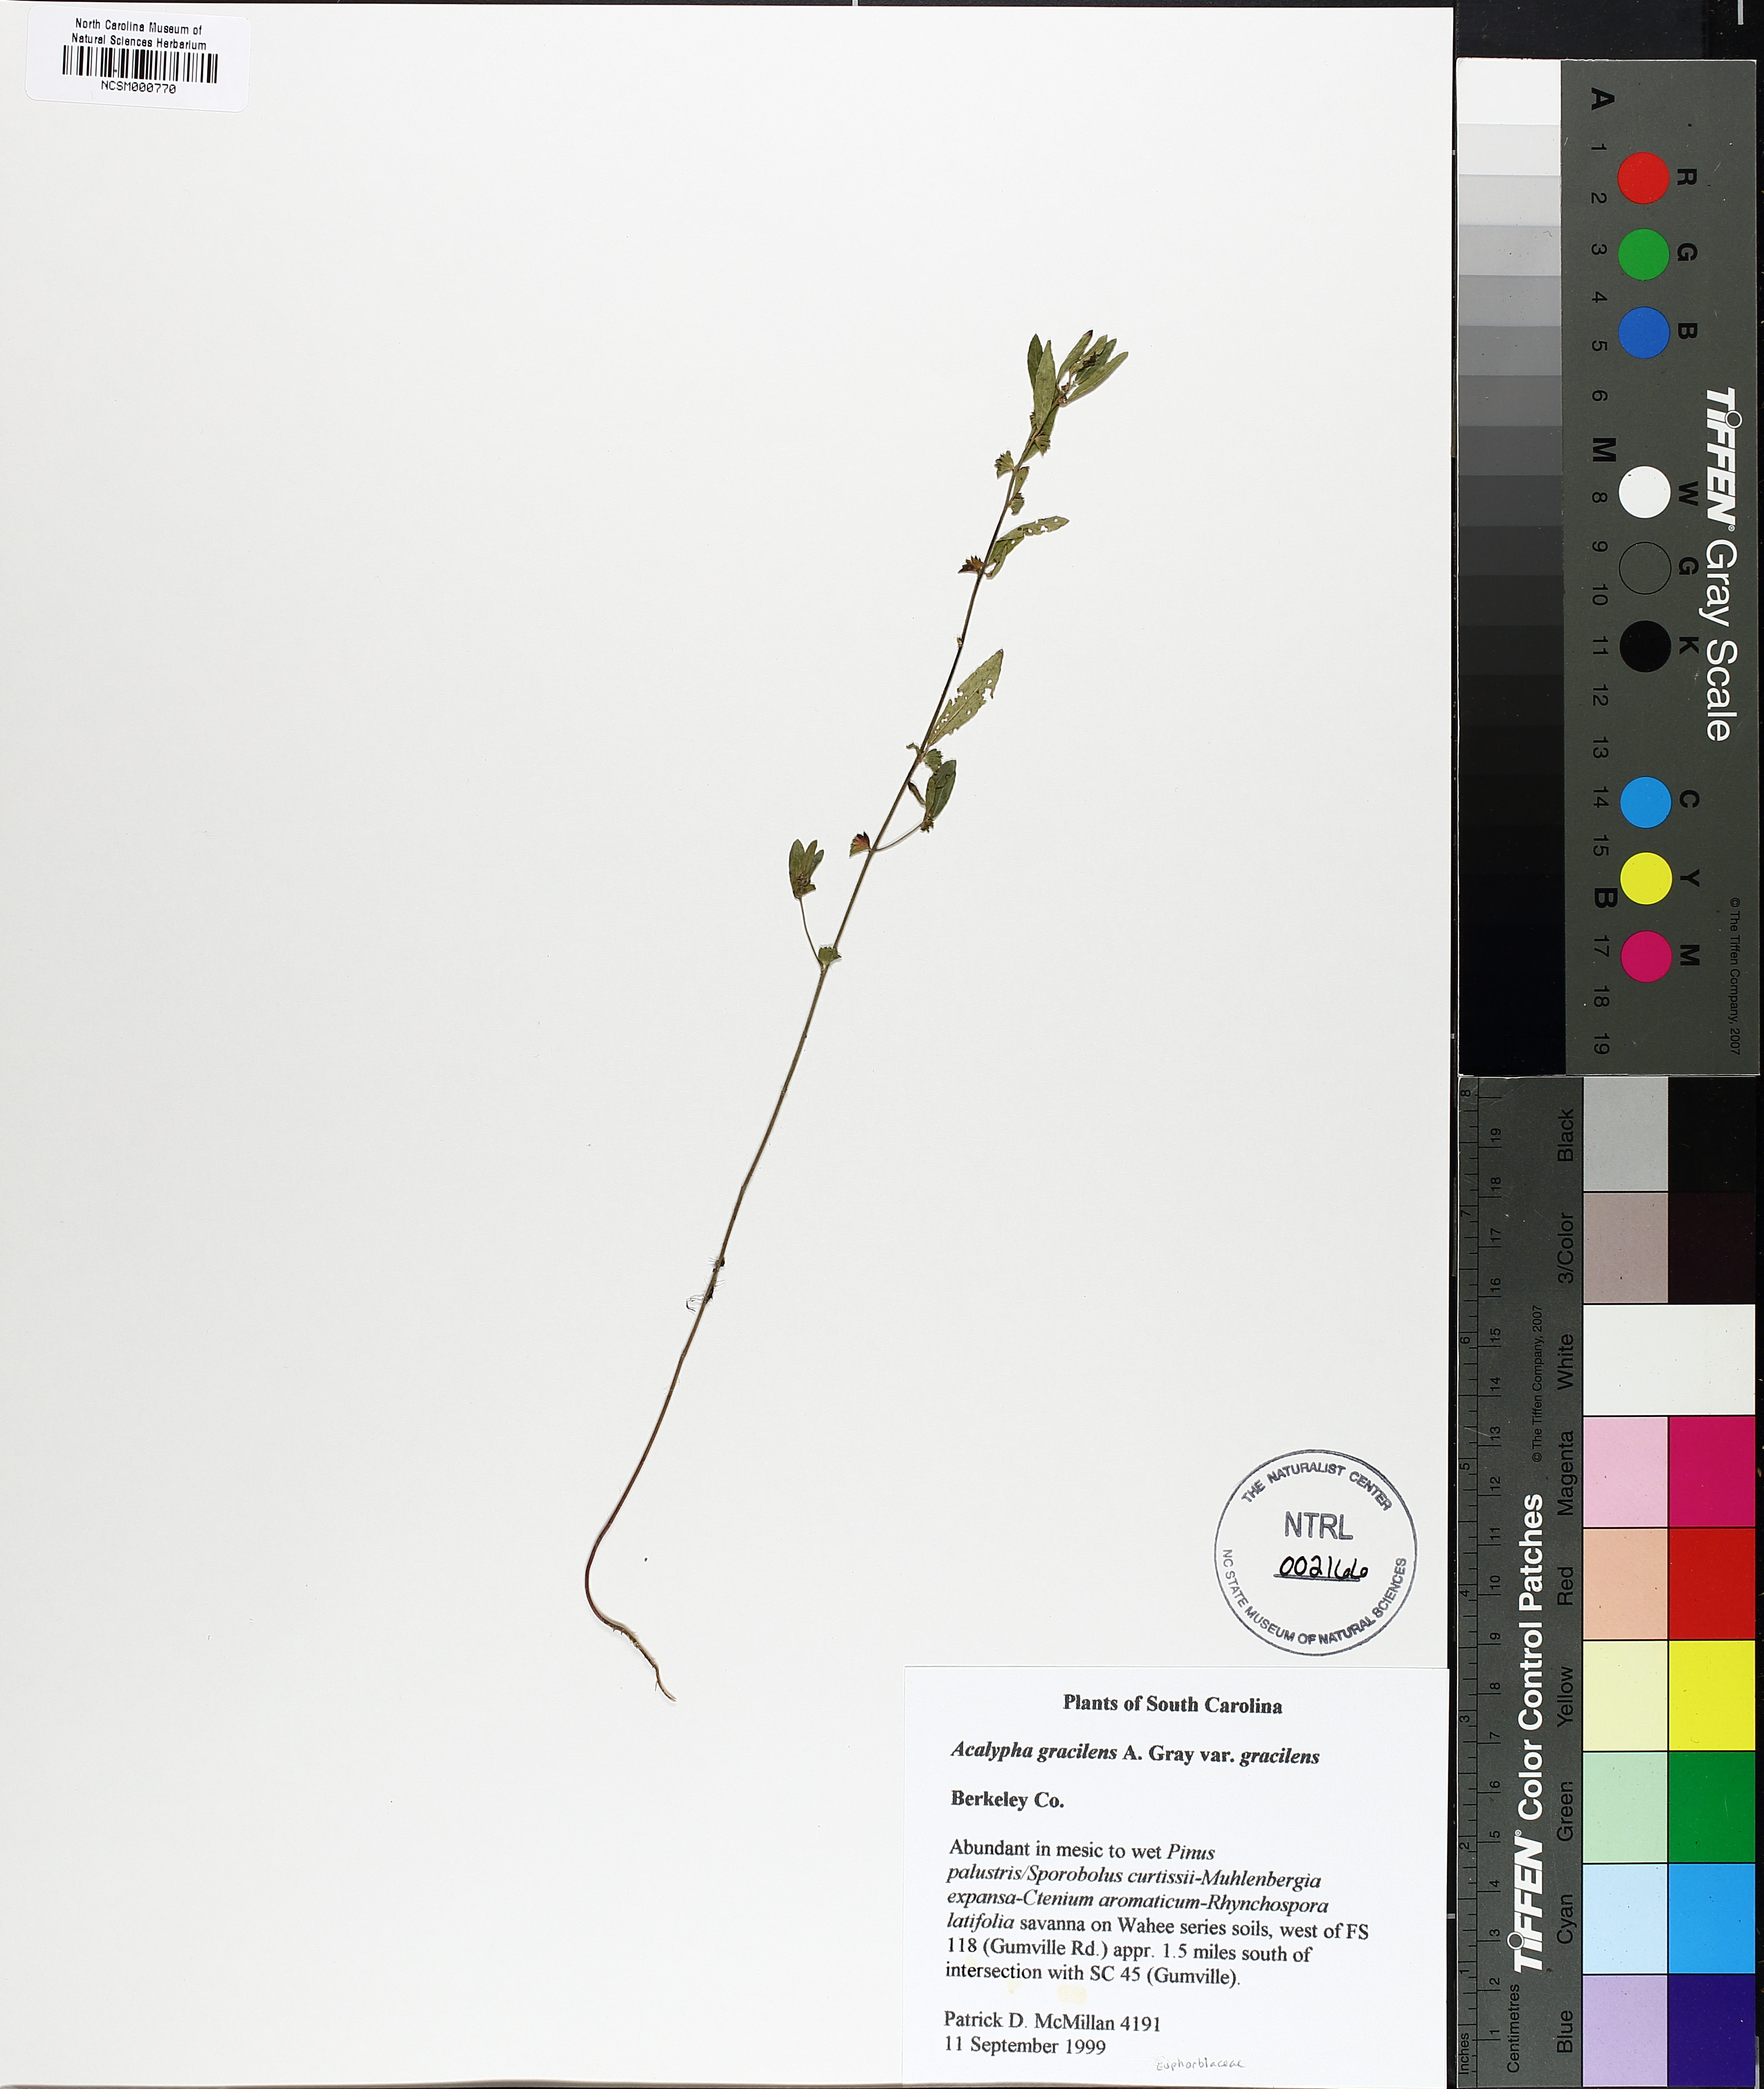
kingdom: Plantae
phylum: Tracheophyta
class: Magnoliopsida
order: Malpighiales
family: Euphorbiaceae
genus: Acalypha
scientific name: Acalypha gracilens
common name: Slender three-seeded mercury
